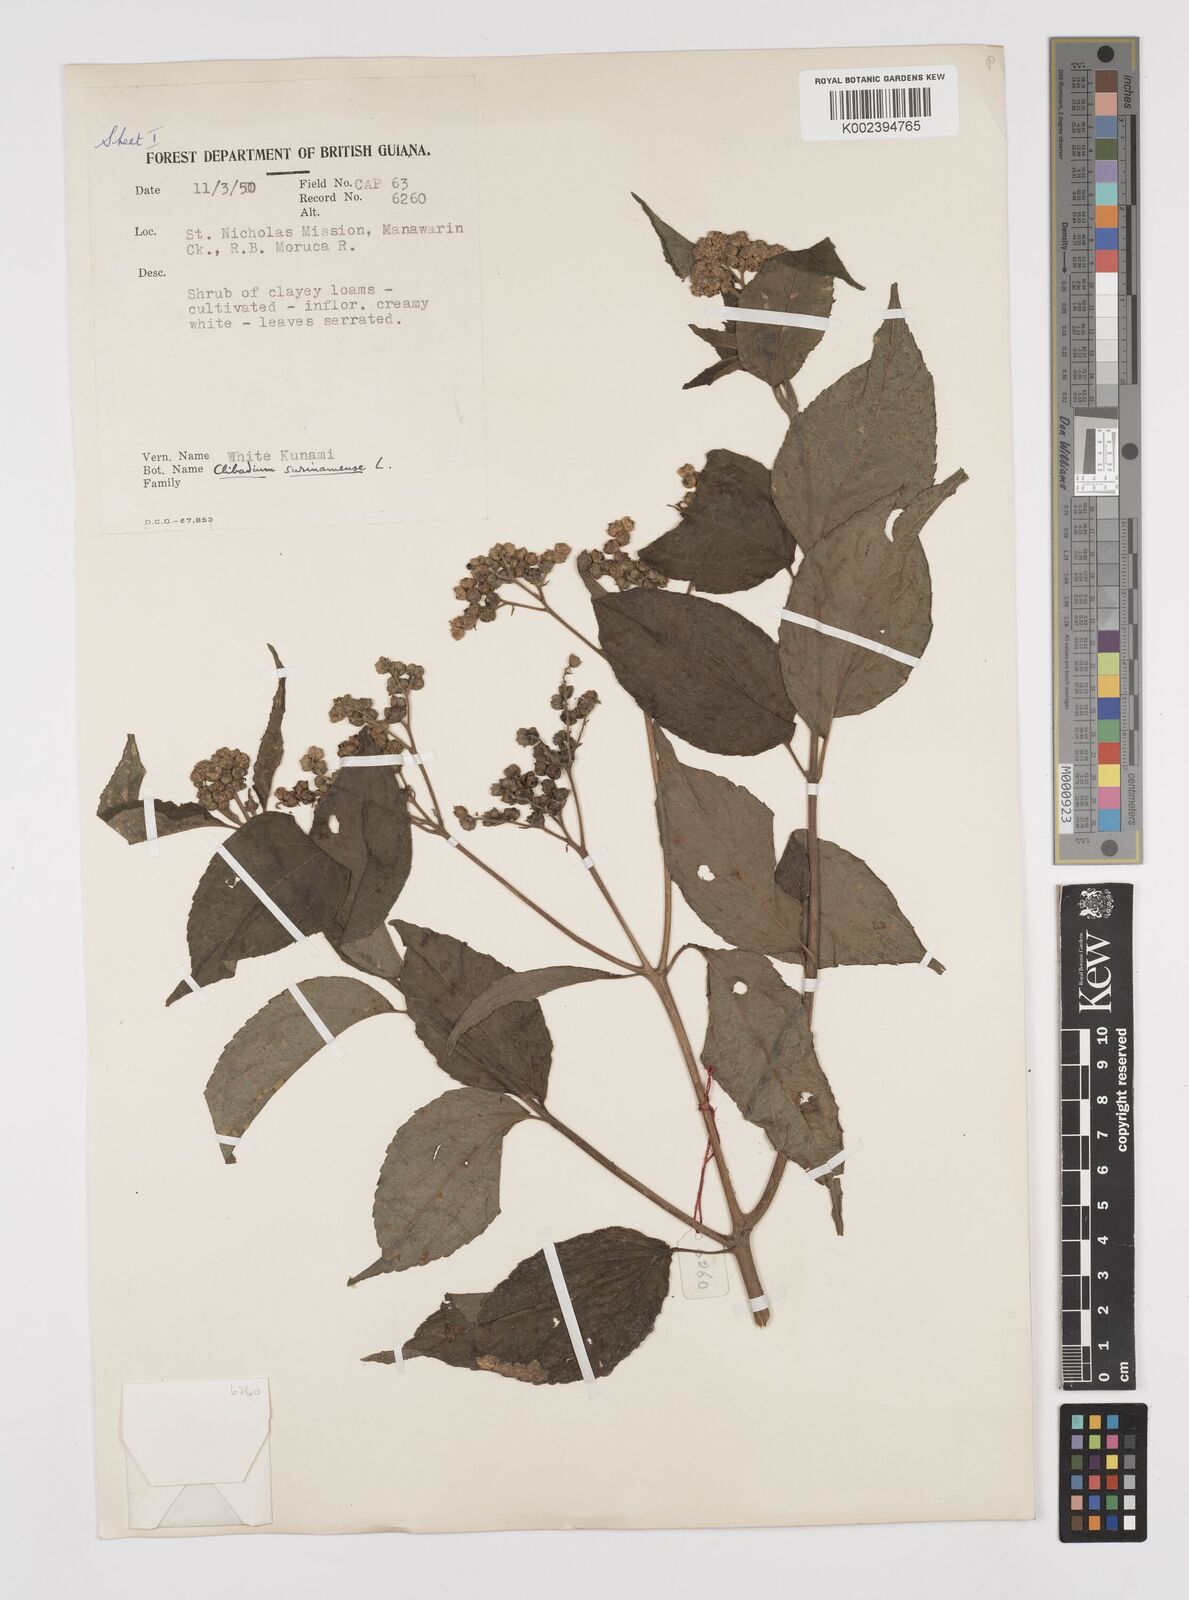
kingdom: Plantae
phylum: Tracheophyta
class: Magnoliopsida
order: Asterales
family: Asteraceae
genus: Clibadium
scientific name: Clibadium surinamense
